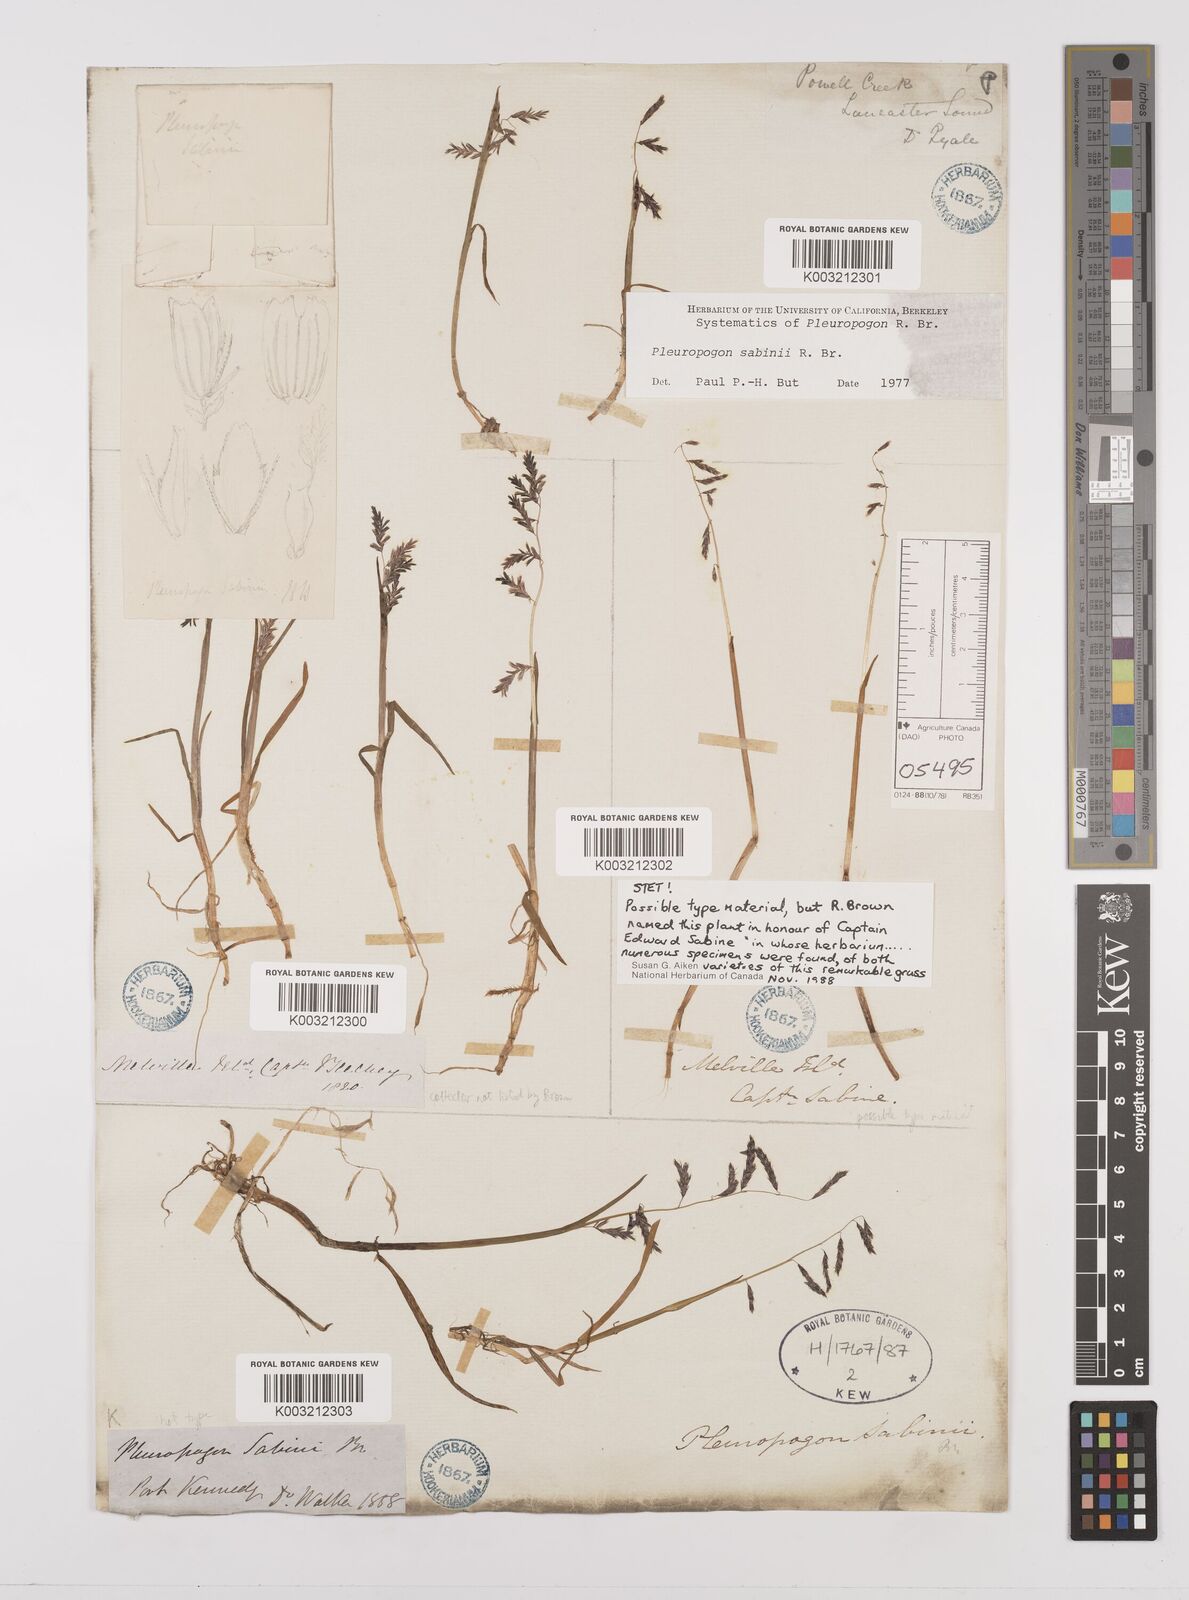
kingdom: Plantae
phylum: Tracheophyta
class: Liliopsida
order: Poales
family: Poaceae
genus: Pleuropogon
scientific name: Pleuropogon sabinei
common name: Sabine's false semaphoregrass
